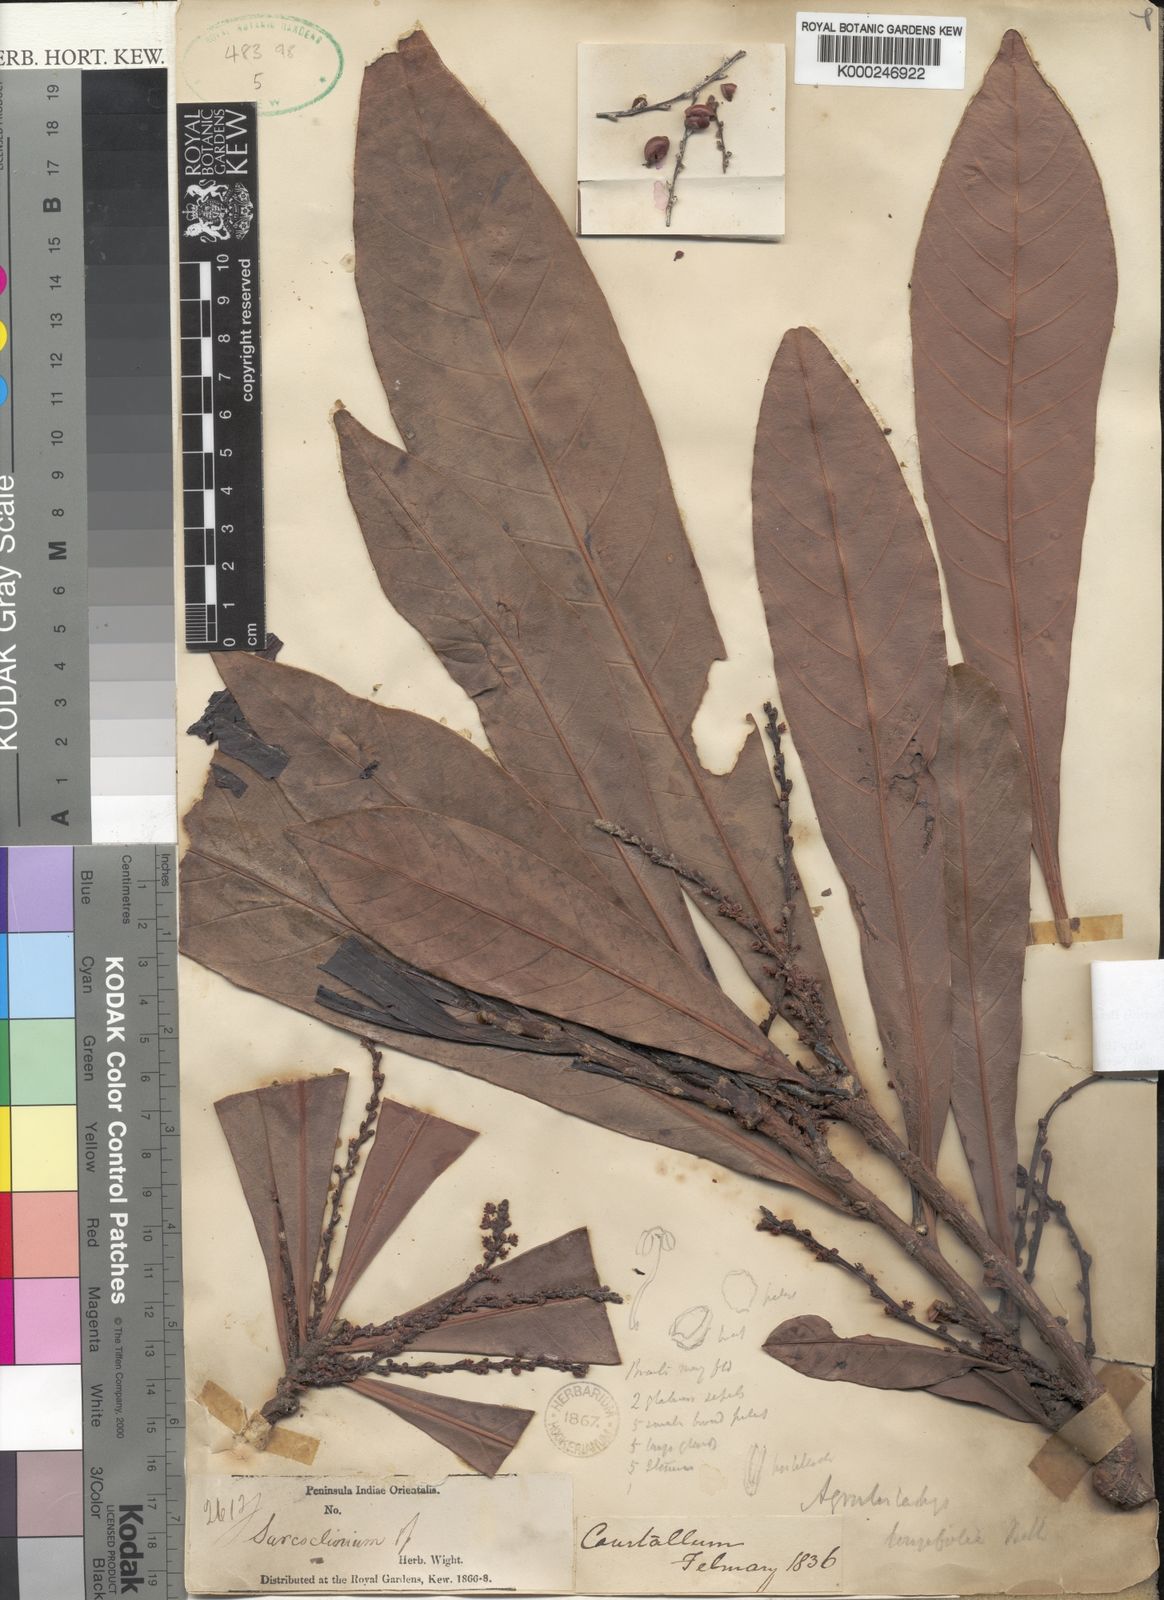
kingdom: Plantae
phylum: Tracheophyta
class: Magnoliopsida
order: Malpighiales
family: Euphorbiaceae
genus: Agrostistachys
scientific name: Agrostistachys borneensis
